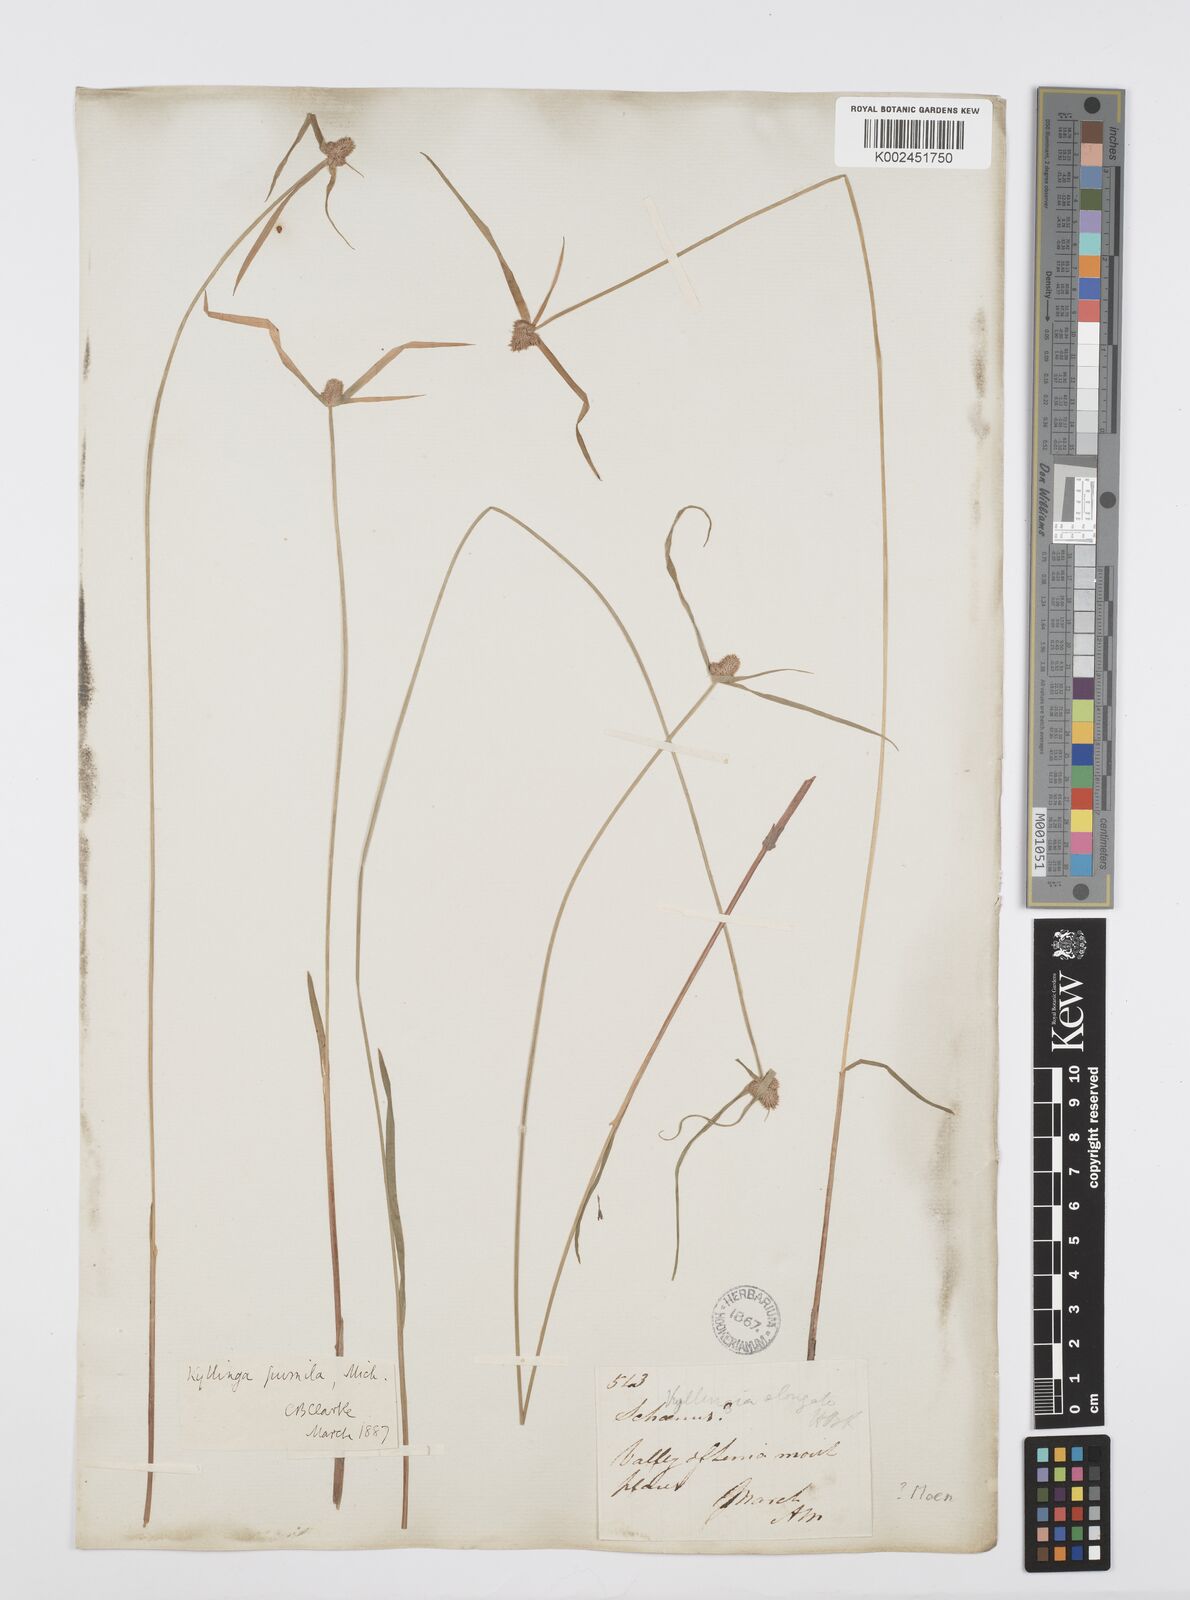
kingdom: Plantae
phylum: Tracheophyta
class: Liliopsida
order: Poales
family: Cyperaceae
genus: Cyperus
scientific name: Cyperus
